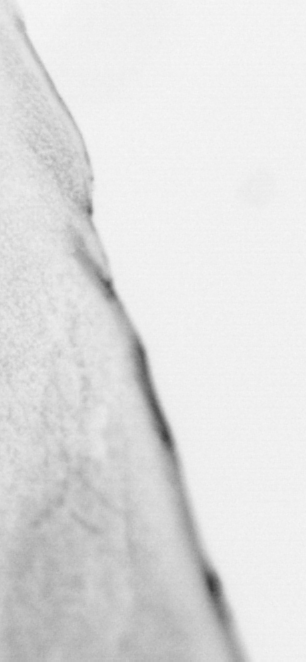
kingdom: Animalia
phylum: Chordata
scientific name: Chordata
